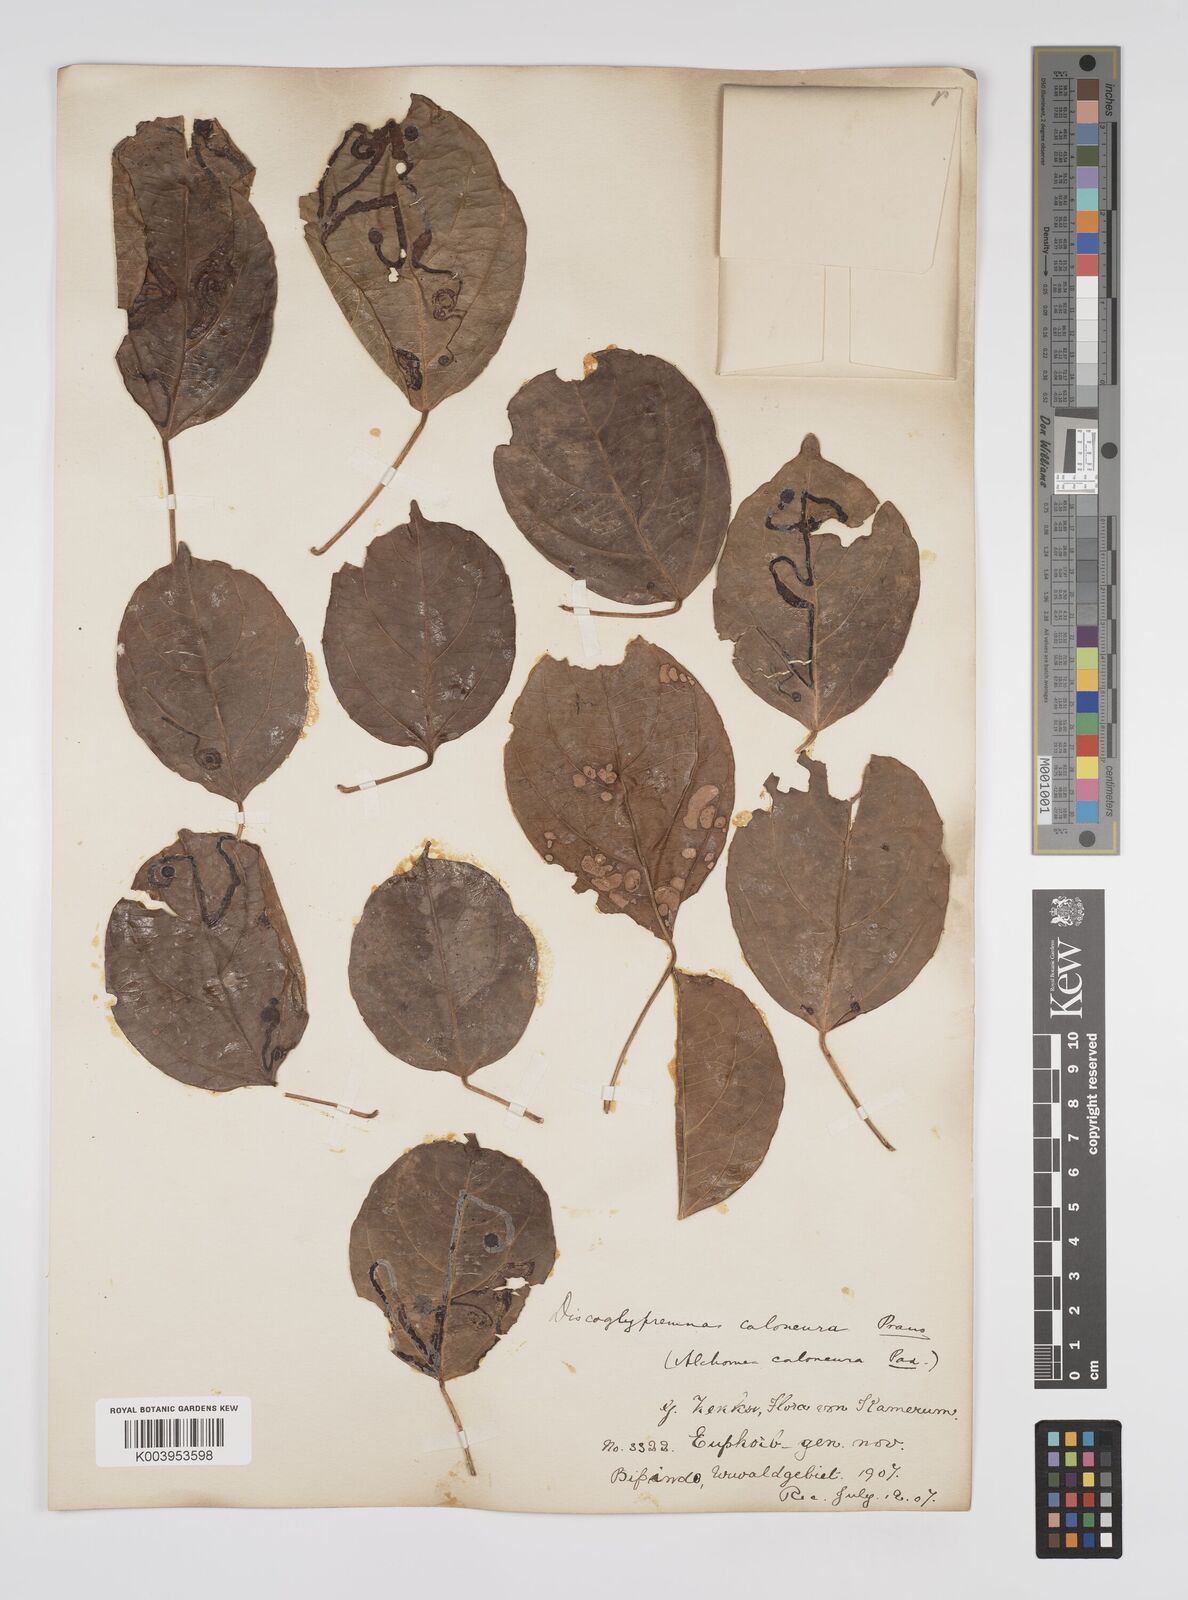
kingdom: Plantae
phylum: Tracheophyta
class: Magnoliopsida
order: Malpighiales
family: Euphorbiaceae
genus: Discoglypremna
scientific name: Discoglypremna caloneura
